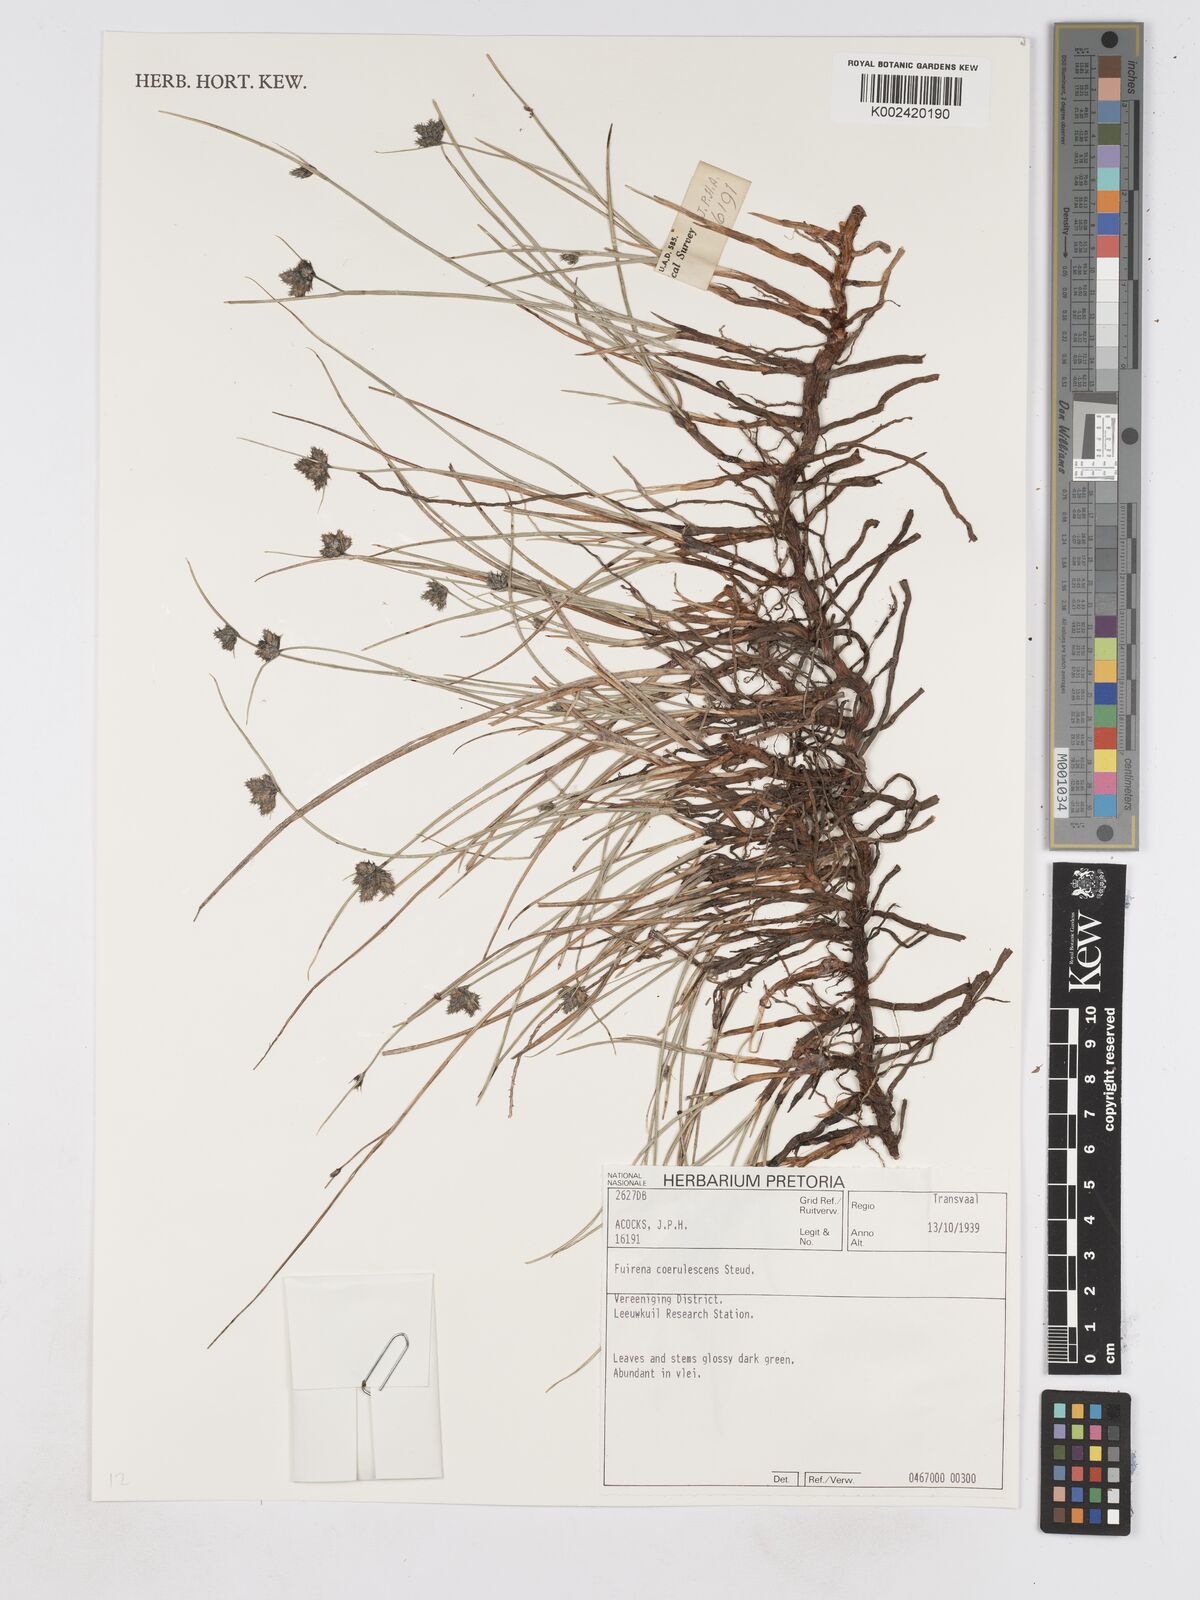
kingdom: Plantae
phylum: Tracheophyta
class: Liliopsida
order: Poales
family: Cyperaceae
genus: Fuirena
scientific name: Fuirena coerulescens
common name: Blue umbrella-sedge
